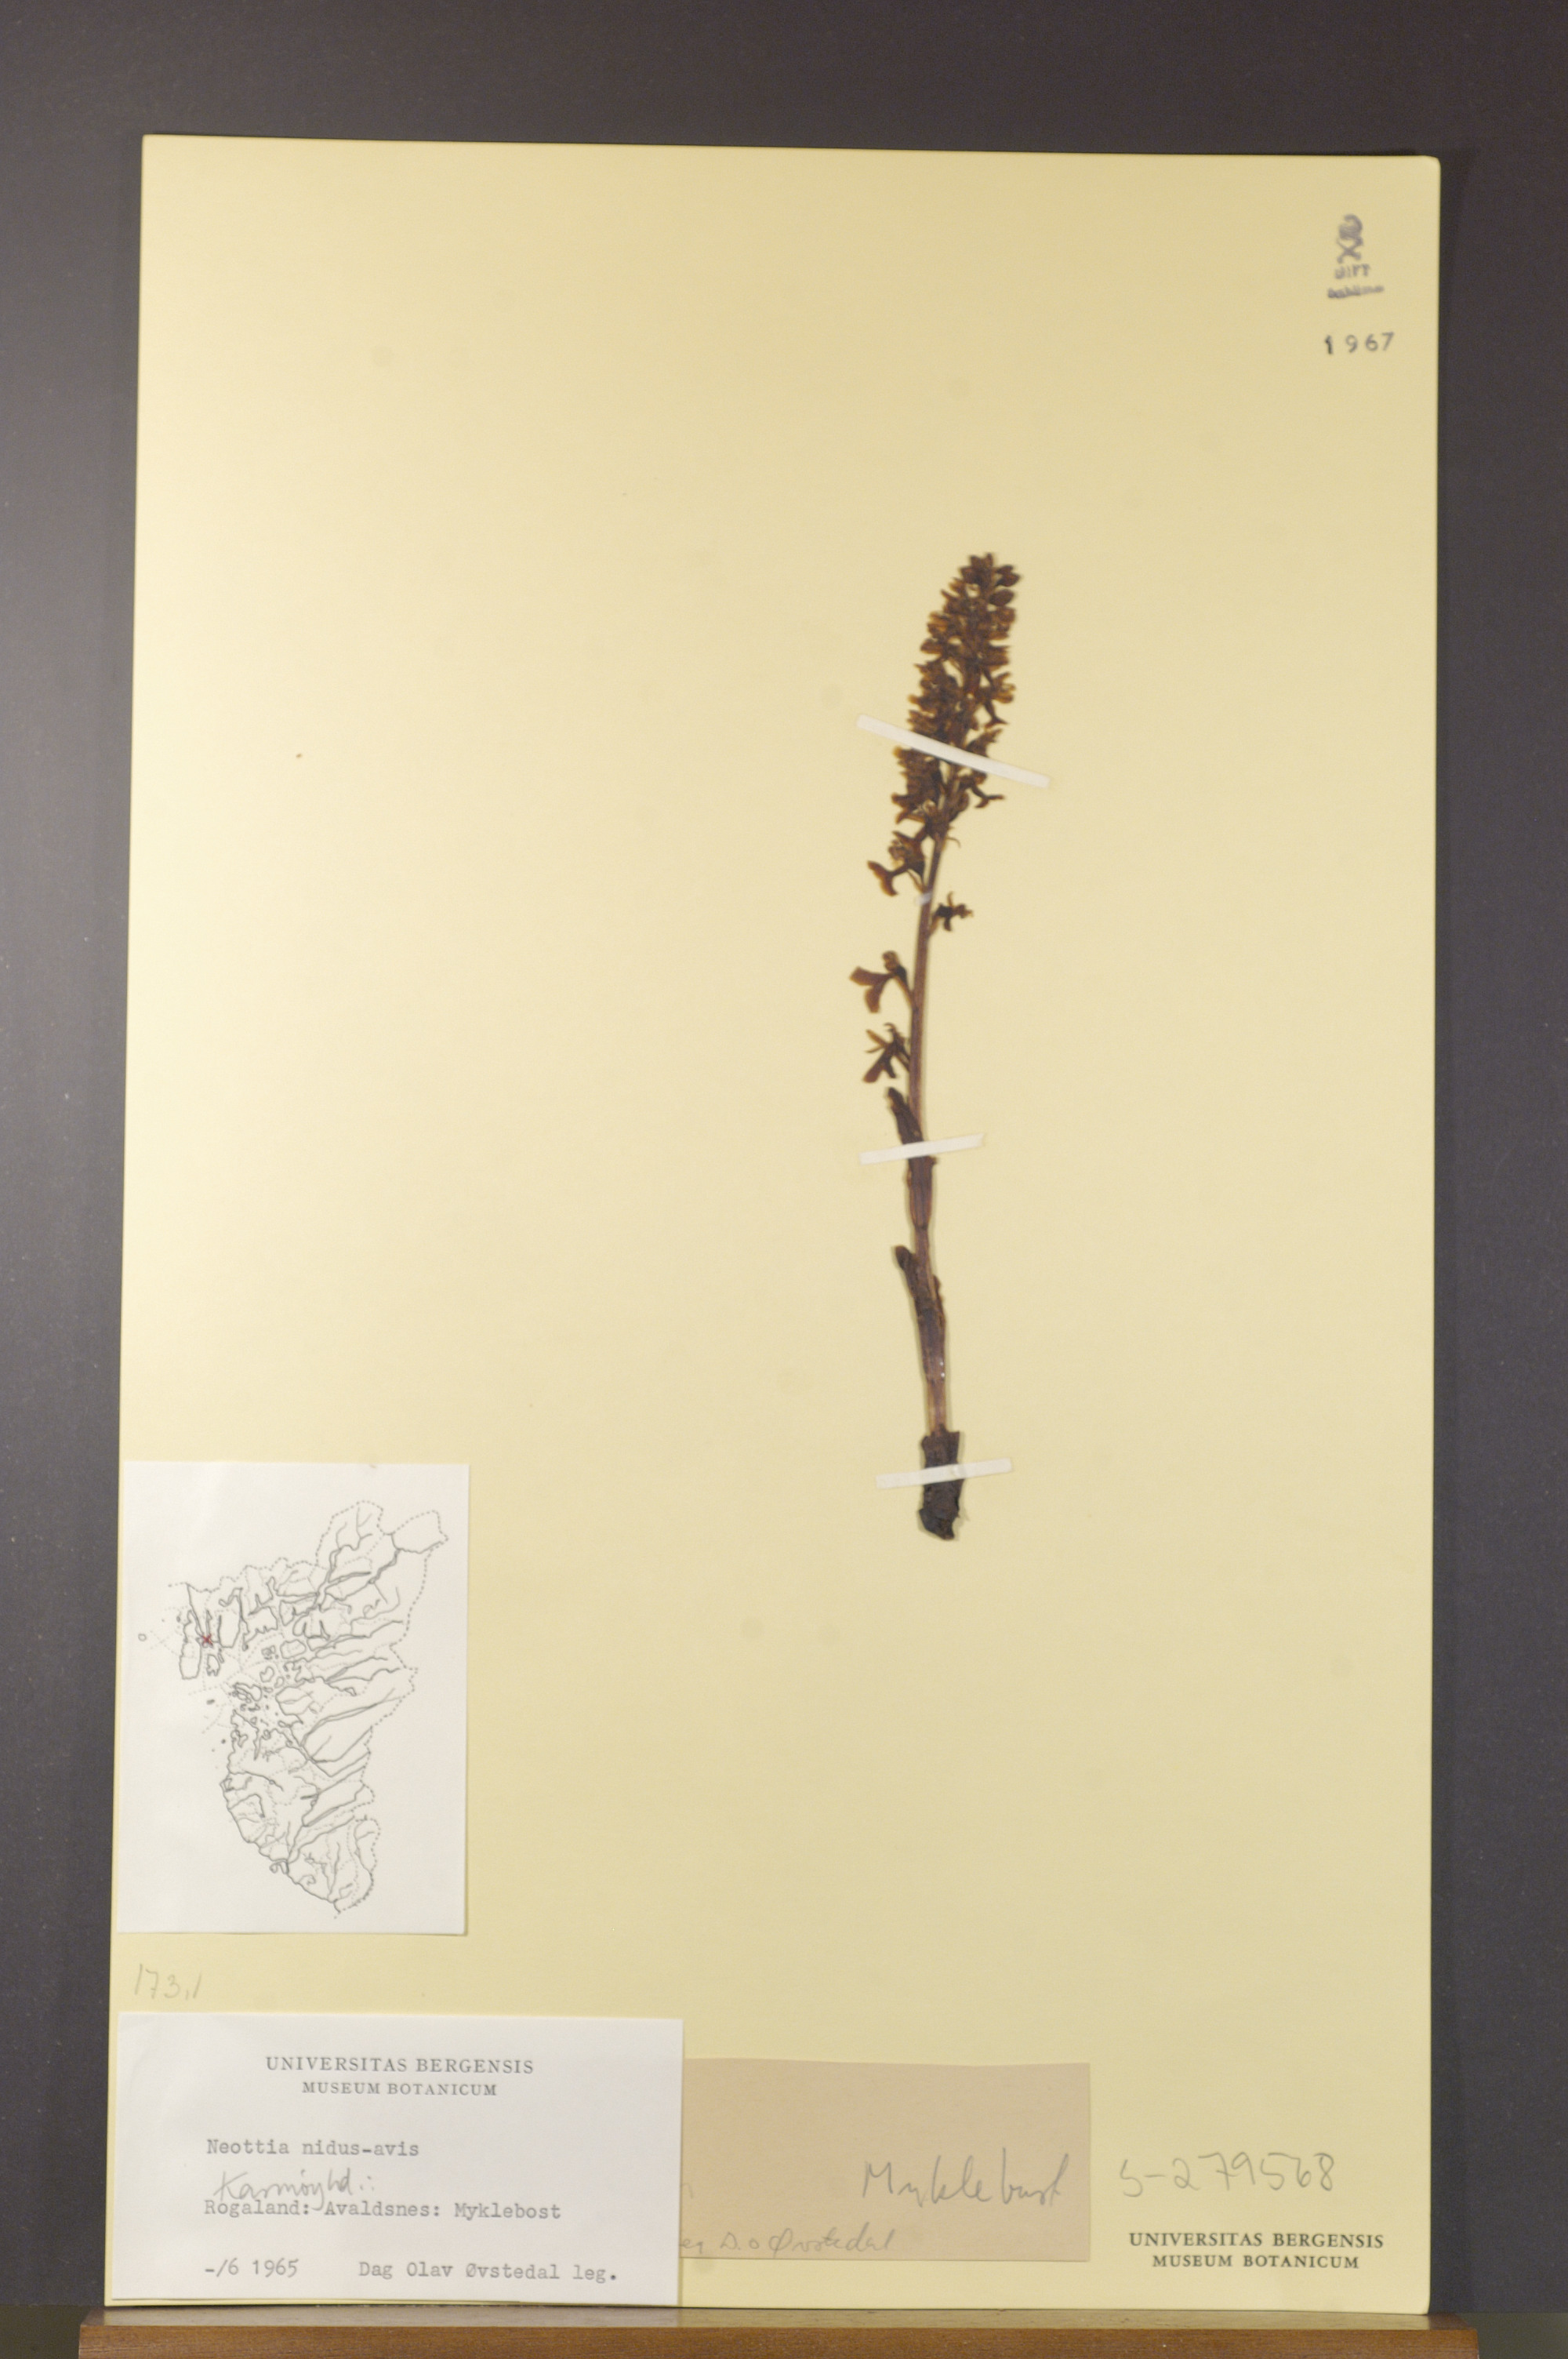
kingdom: Plantae
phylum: Tracheophyta
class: Liliopsida
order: Asparagales
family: Orchidaceae
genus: Neottia
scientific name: Neottia nidus-avis
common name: Bird's-nest orchid
